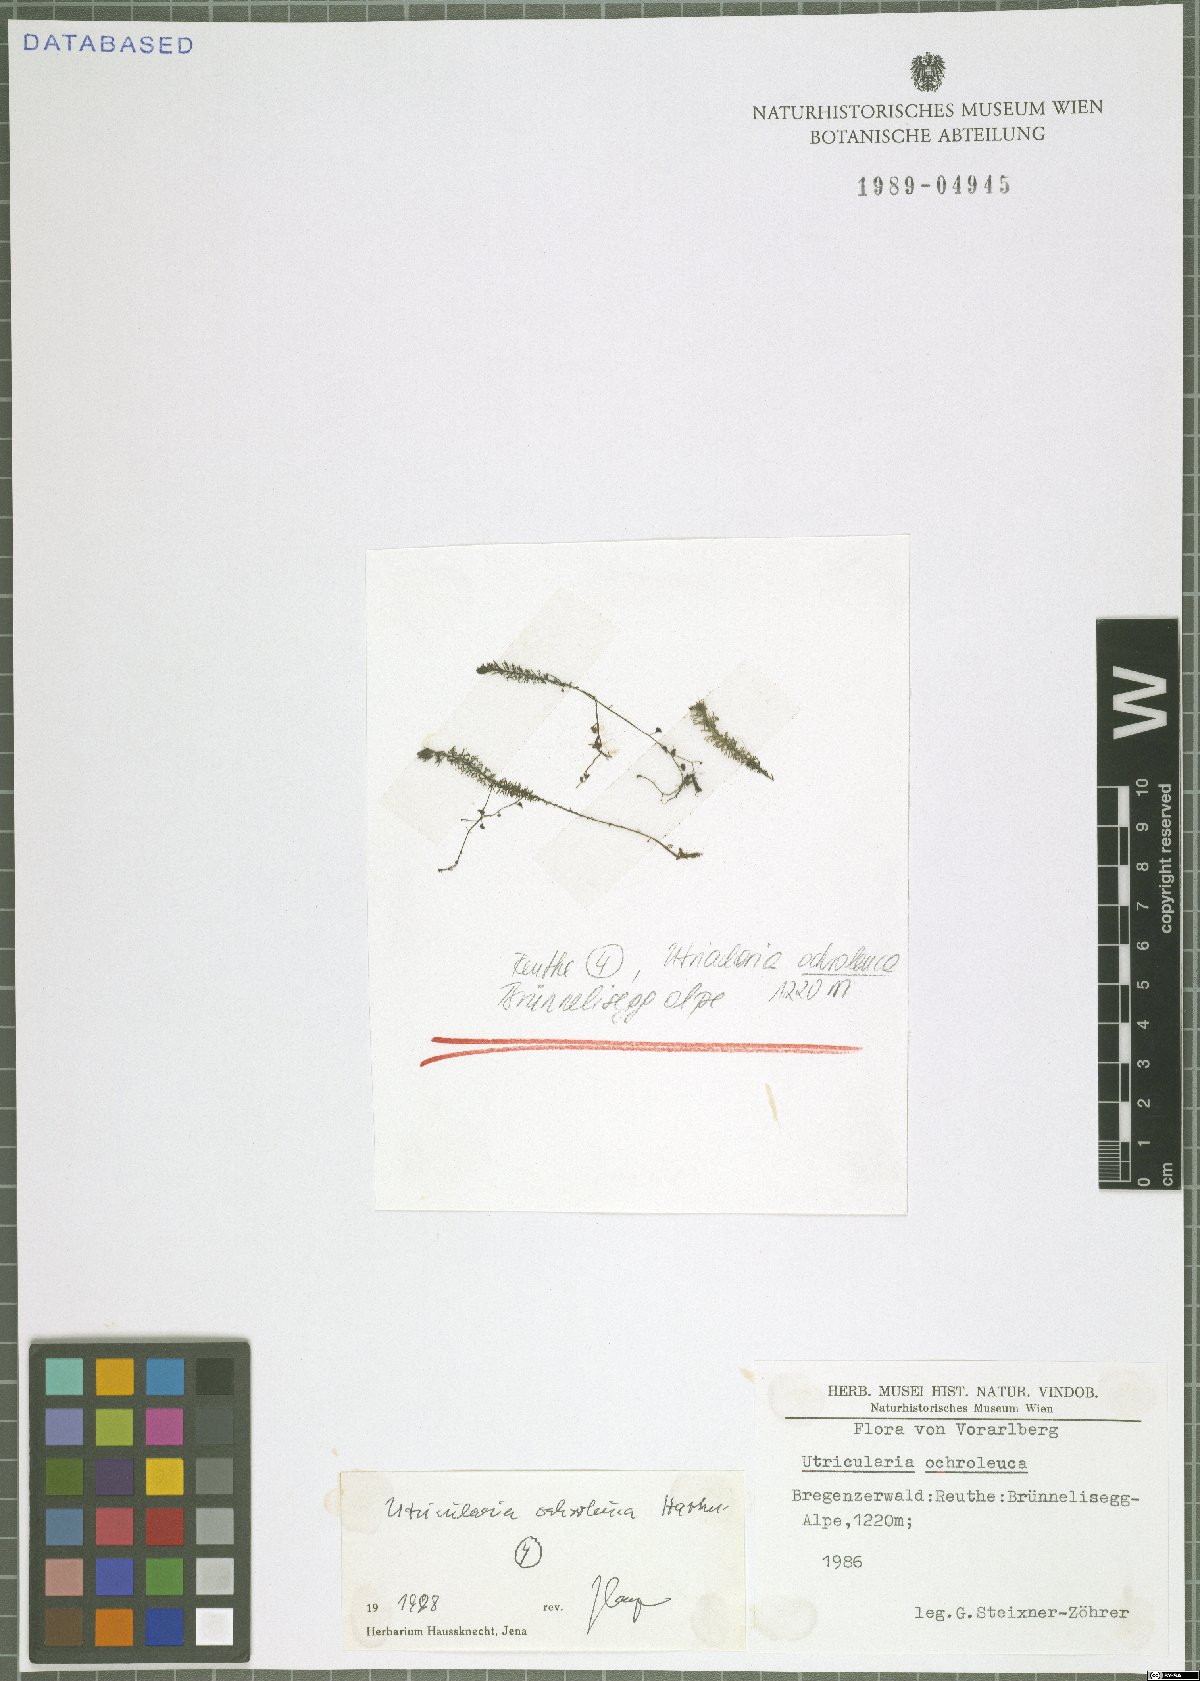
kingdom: Plantae
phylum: Tracheophyta
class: Magnoliopsida
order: Lamiales
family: Lentibulariaceae
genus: Utricularia
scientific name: Utricularia ochroleuca
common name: Pale bladderwort
